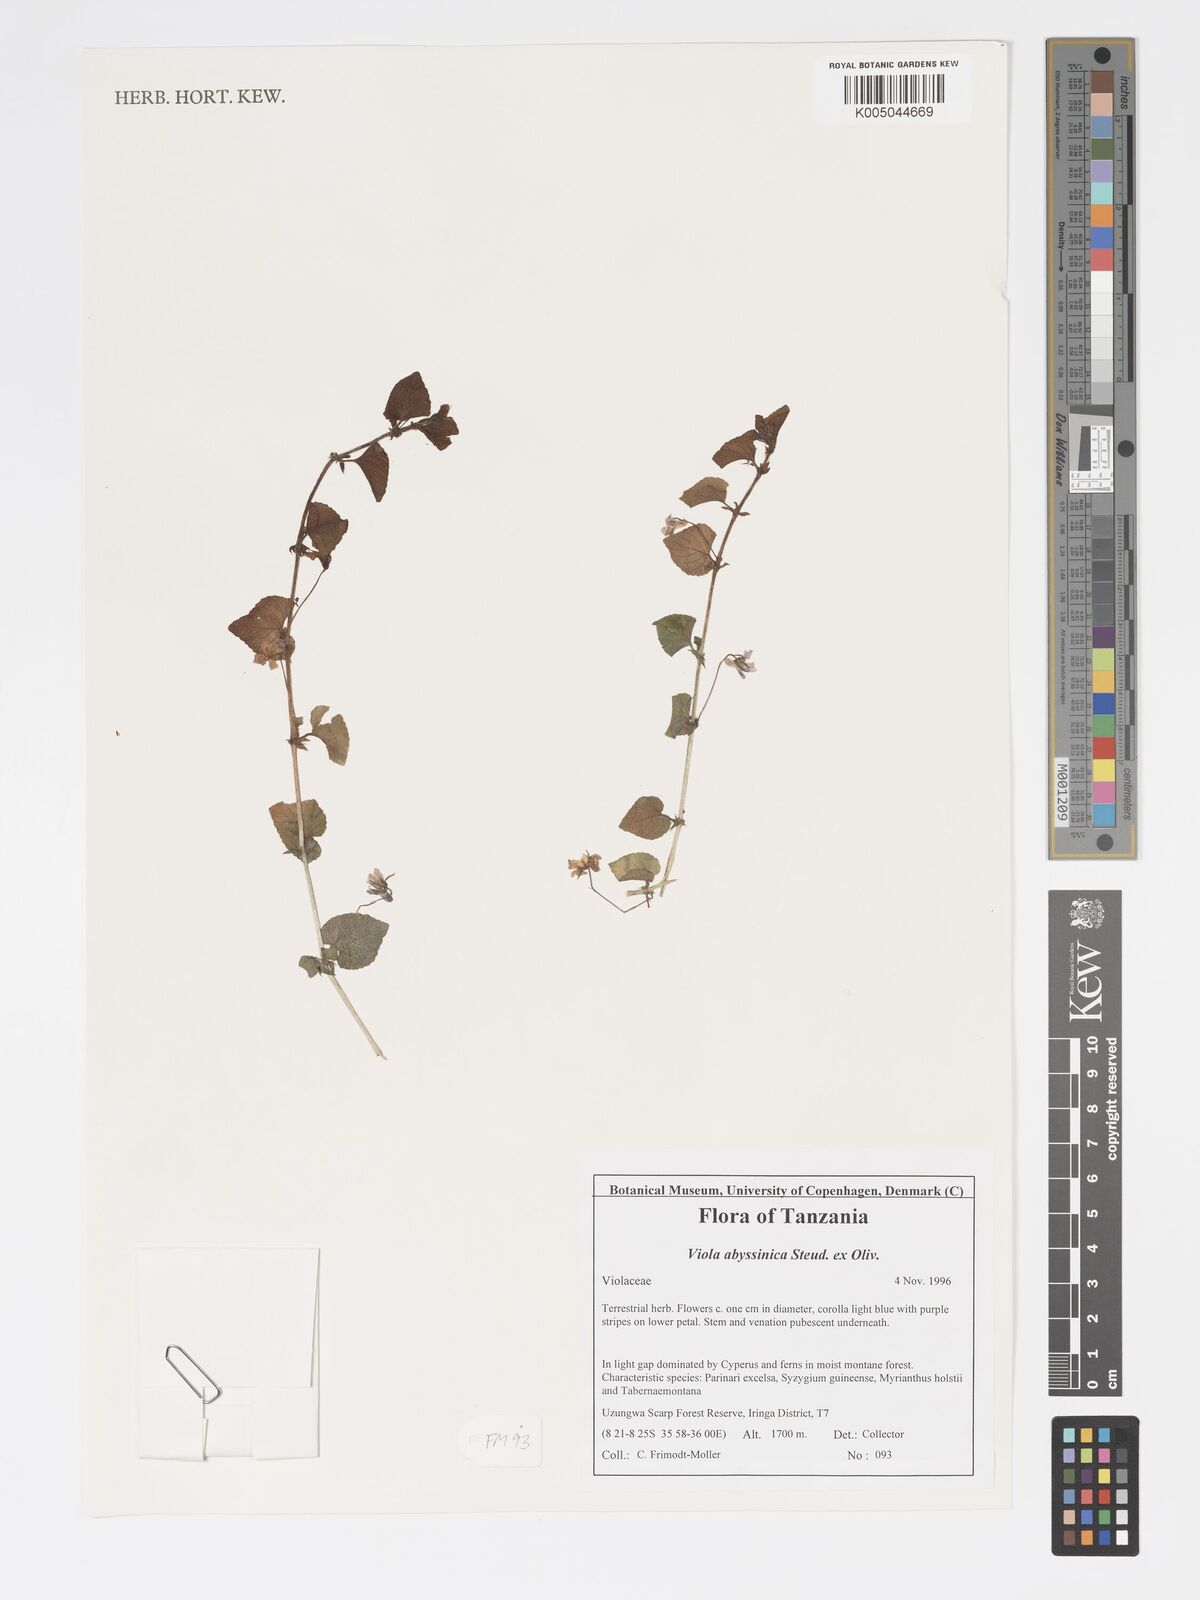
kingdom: Plantae
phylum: Tracheophyta
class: Magnoliopsida
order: Malpighiales
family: Violaceae
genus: Viola
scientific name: Viola abyssinica
